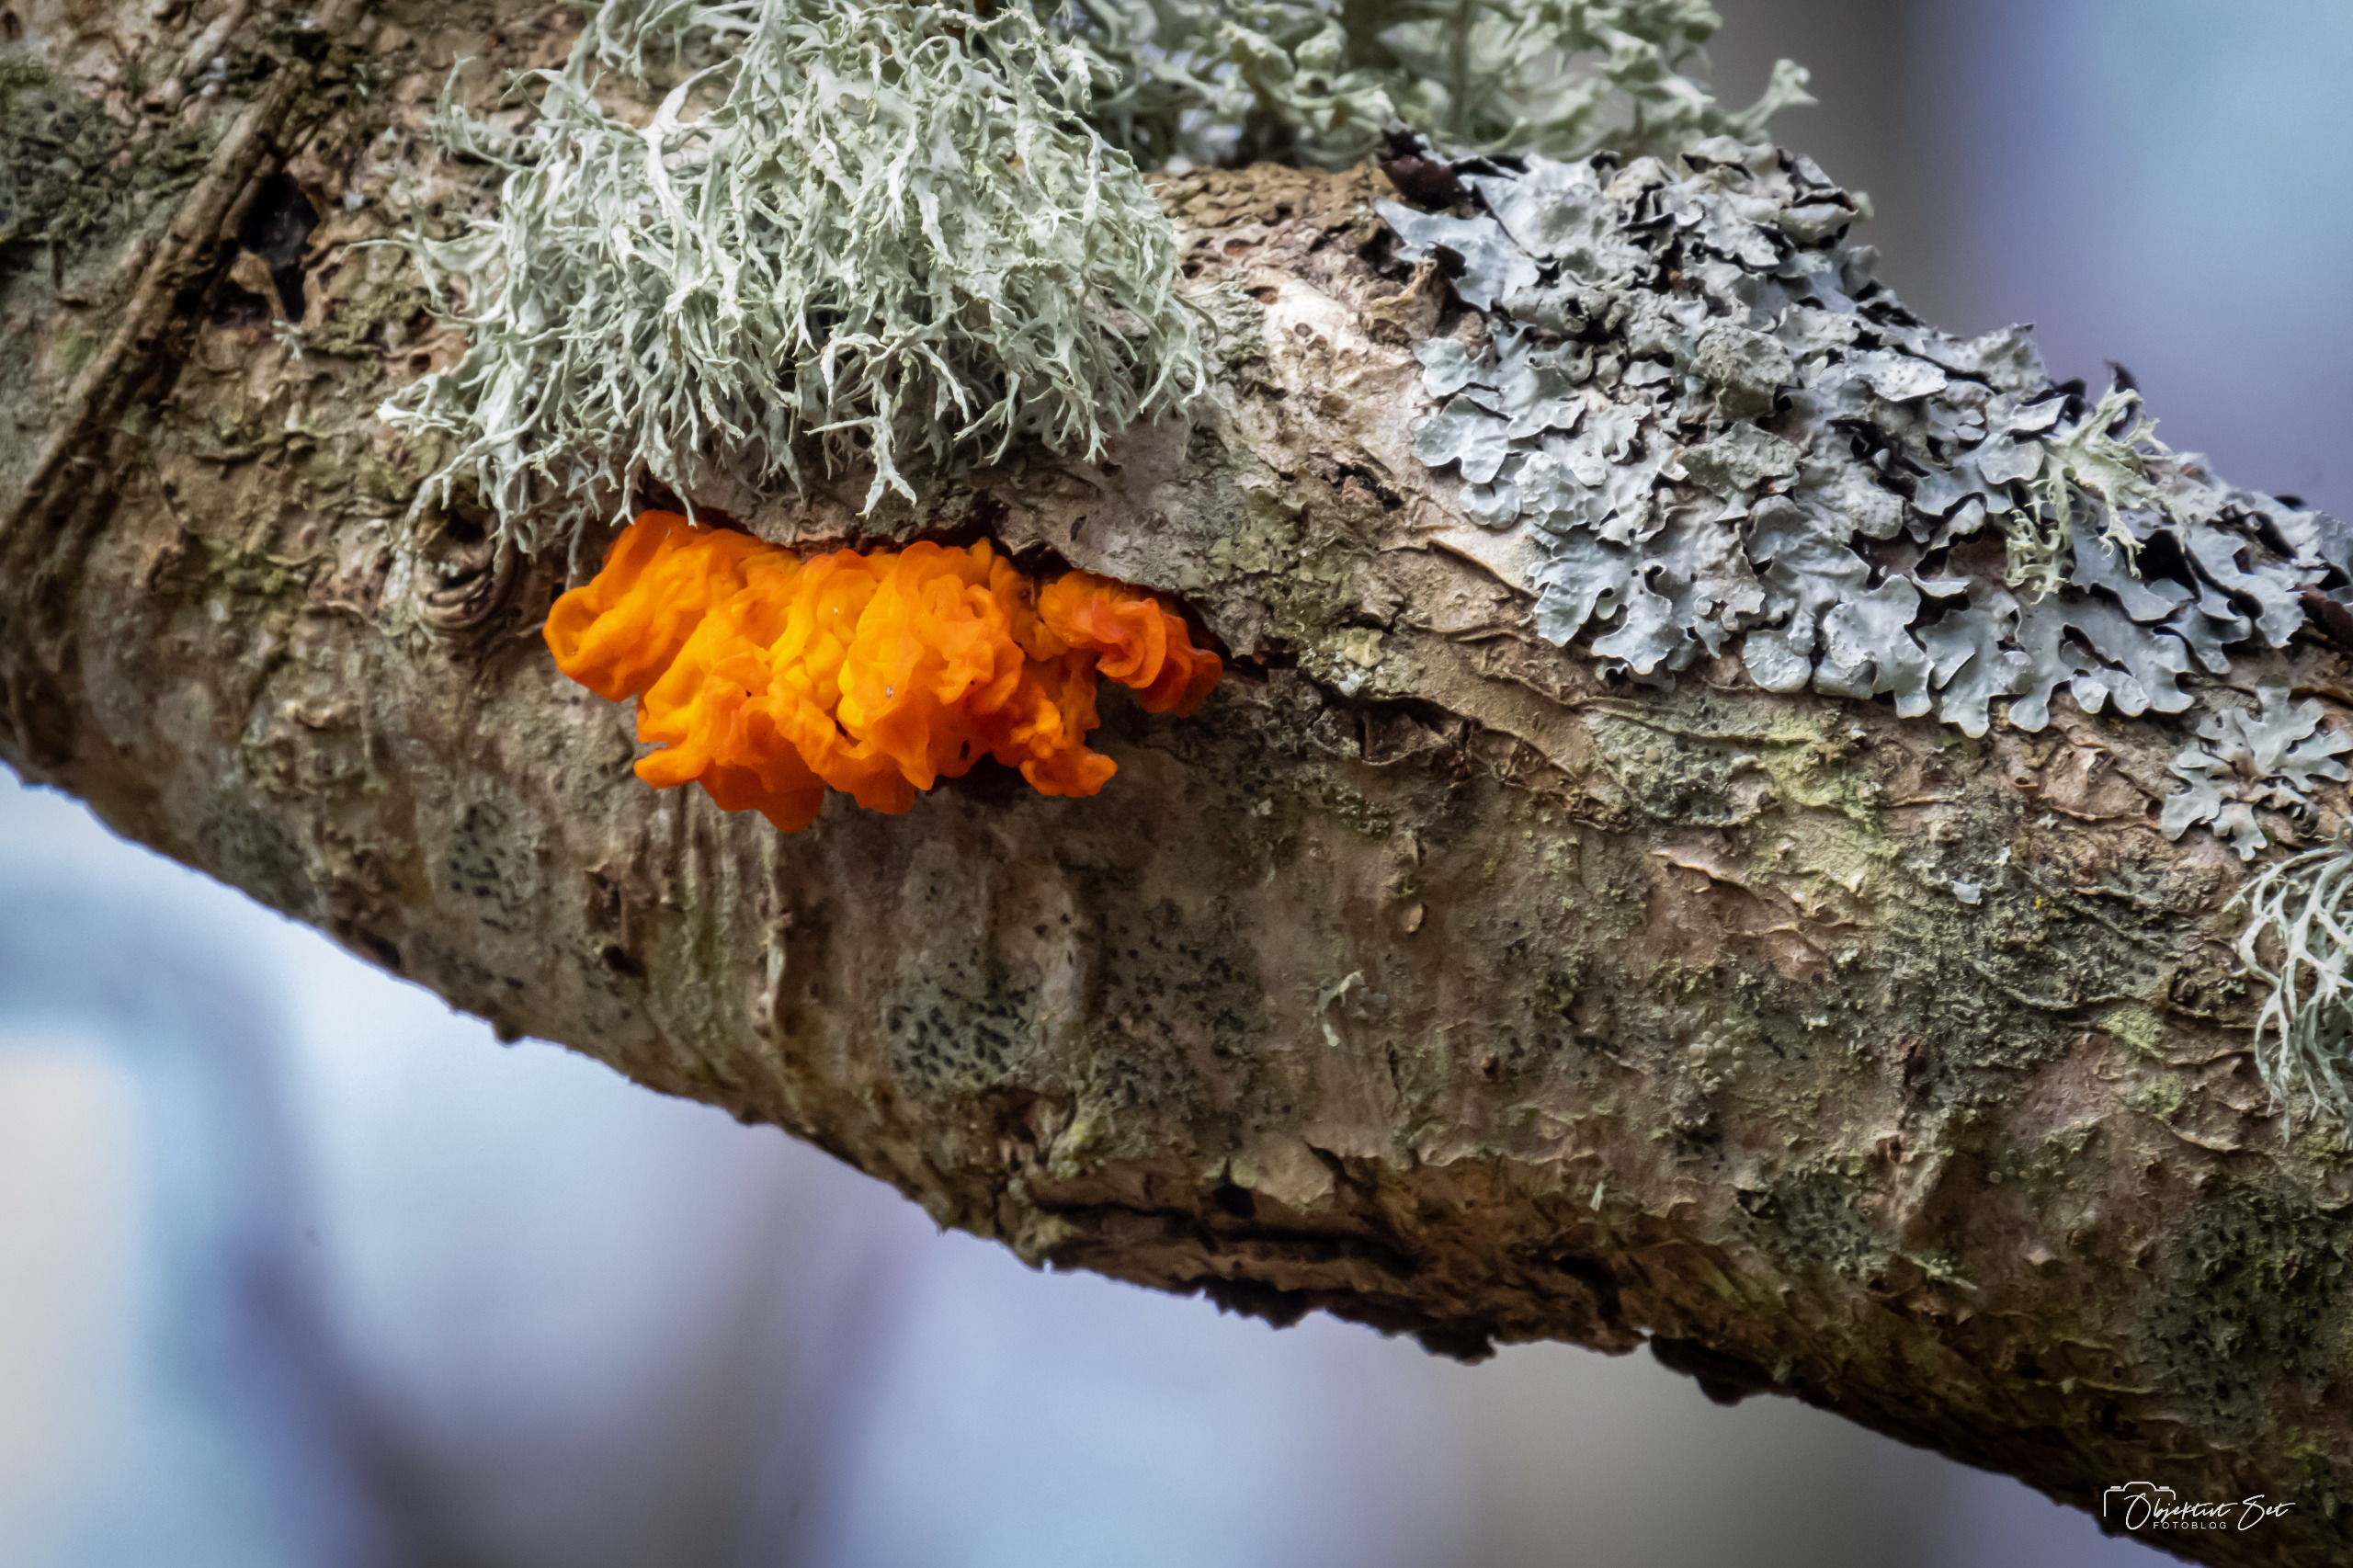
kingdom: Fungi
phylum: Basidiomycota
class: Tremellomycetes
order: Tremellales
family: Tremellaceae
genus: Tremella
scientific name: Tremella mesenterica
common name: Gul bævresvamp
